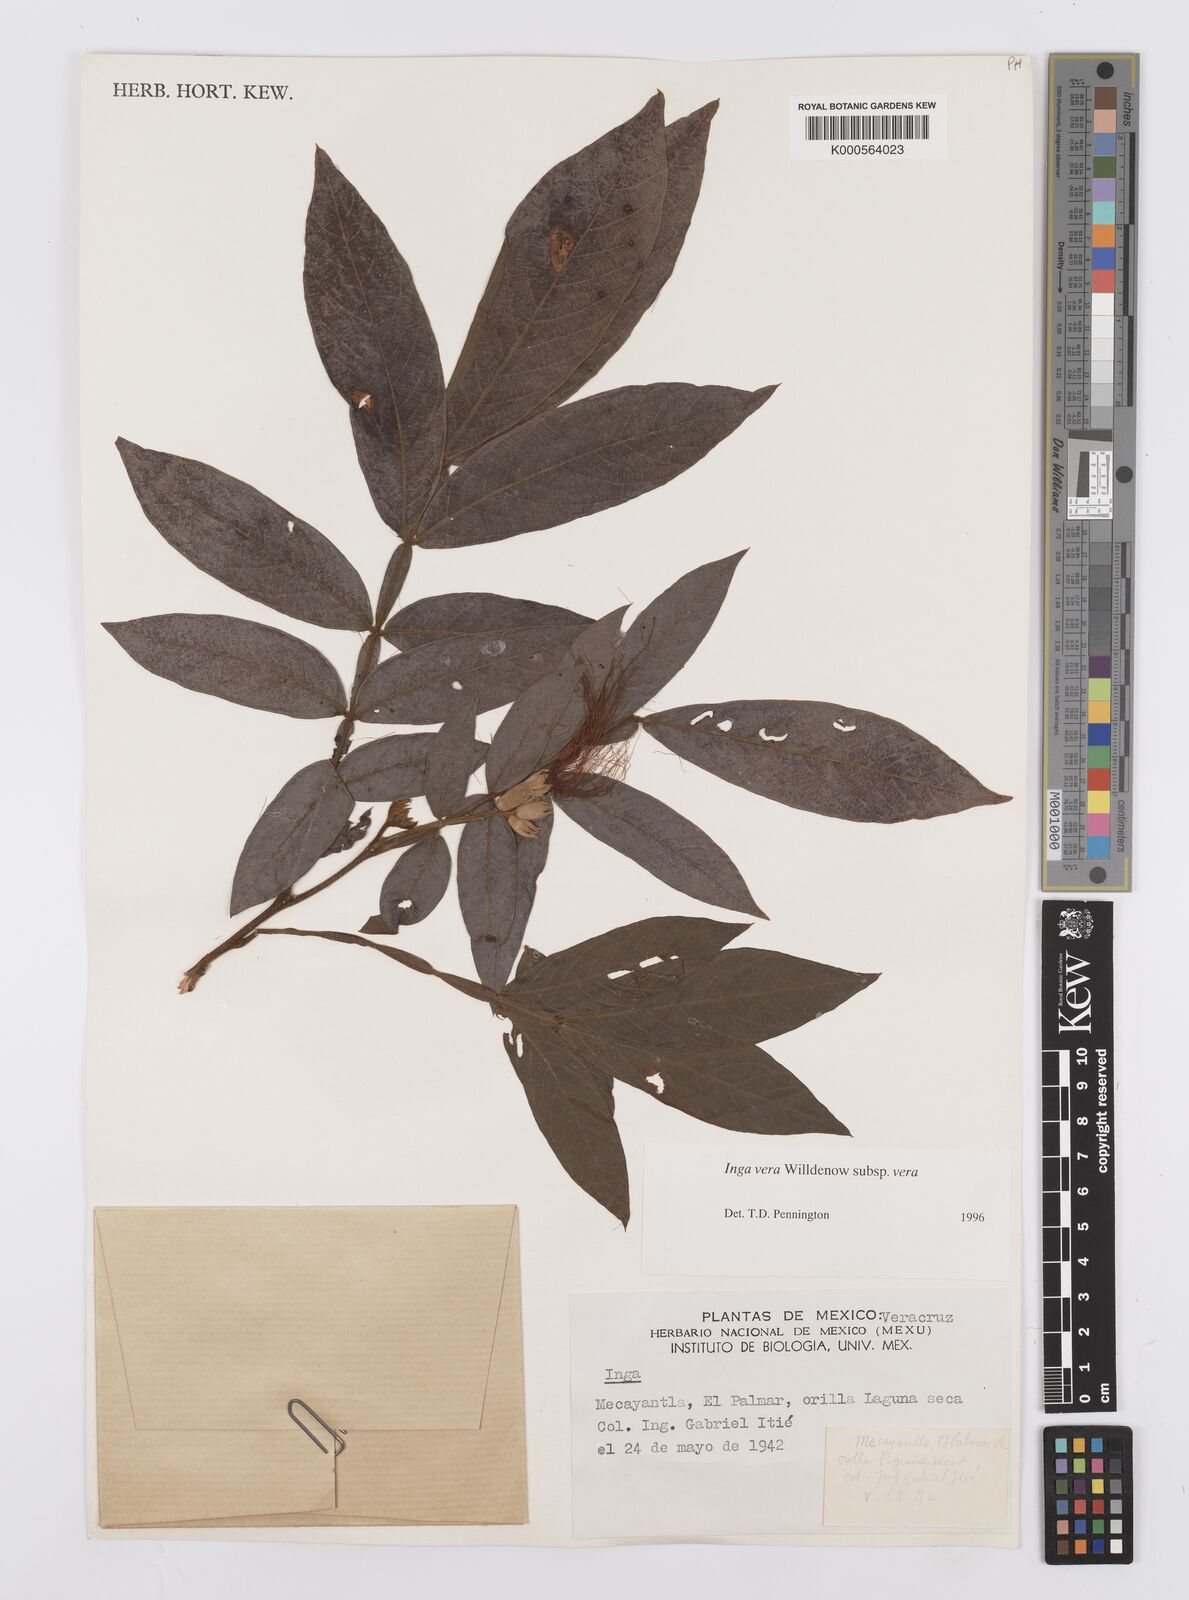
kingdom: Plantae
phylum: Tracheophyta
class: Magnoliopsida
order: Fabales
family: Fabaceae
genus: Inga
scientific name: Inga vera
